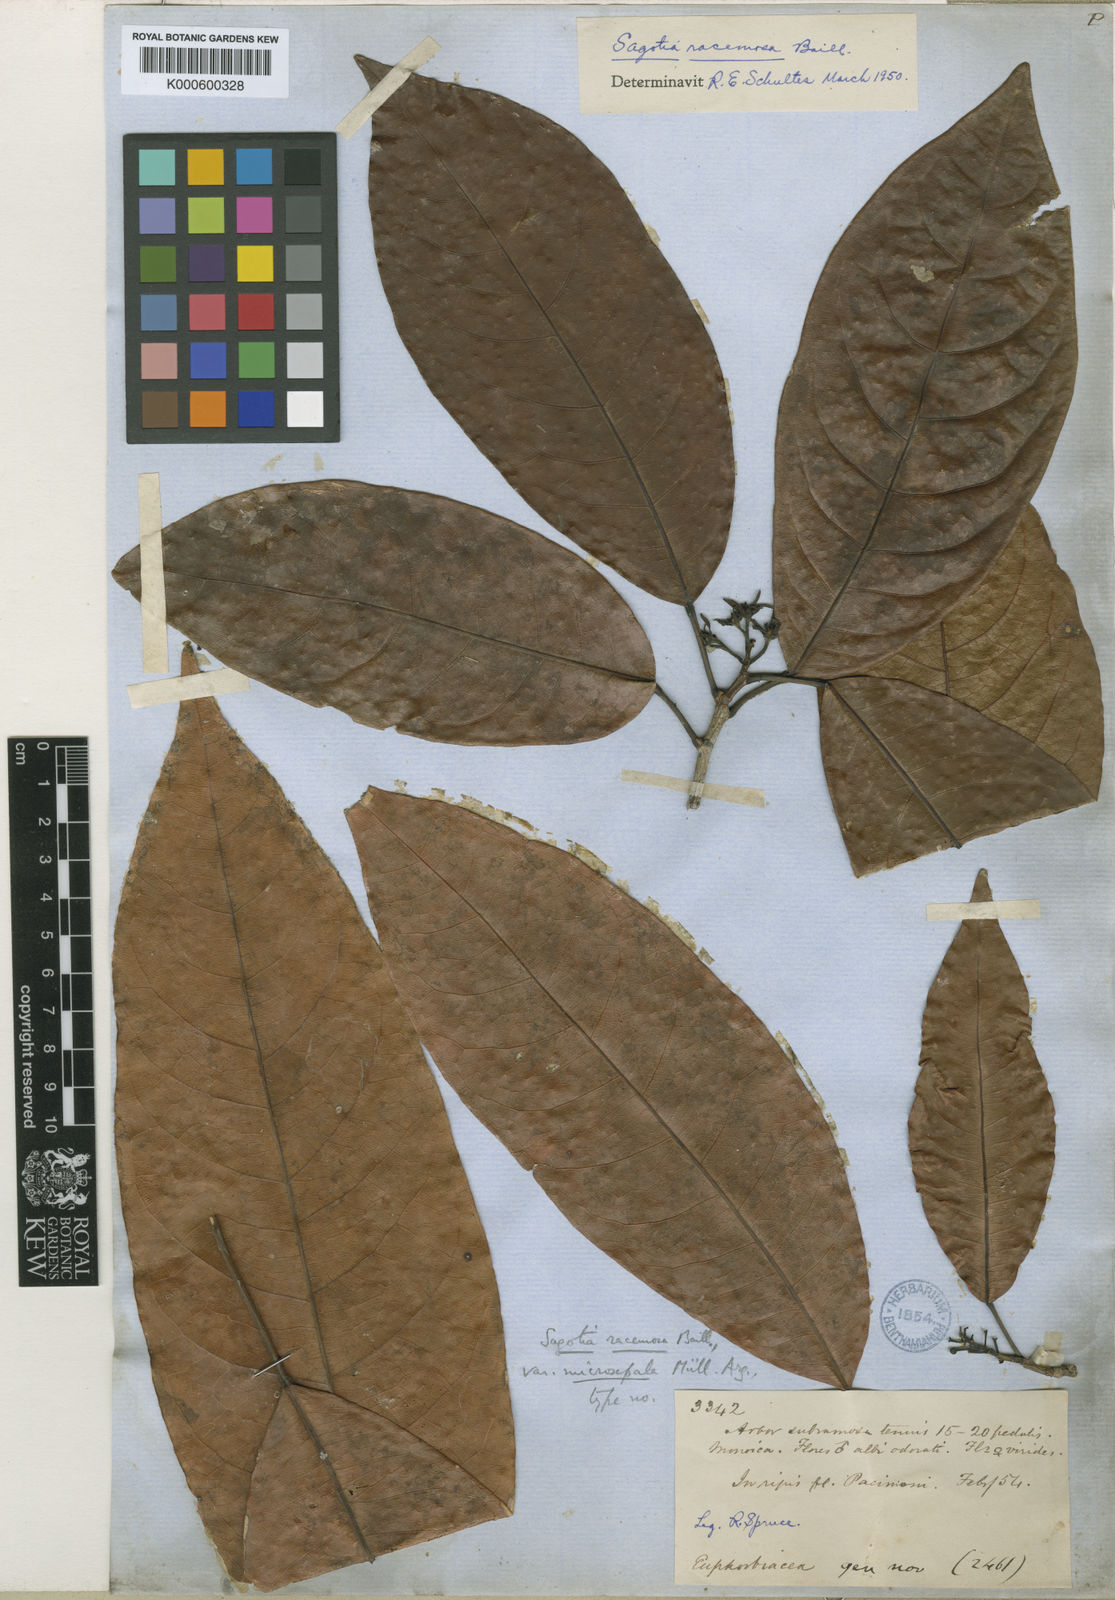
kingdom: Plantae
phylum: Tracheophyta
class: Magnoliopsida
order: Malpighiales
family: Euphorbiaceae
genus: Sagotia
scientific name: Sagotia racemosa
